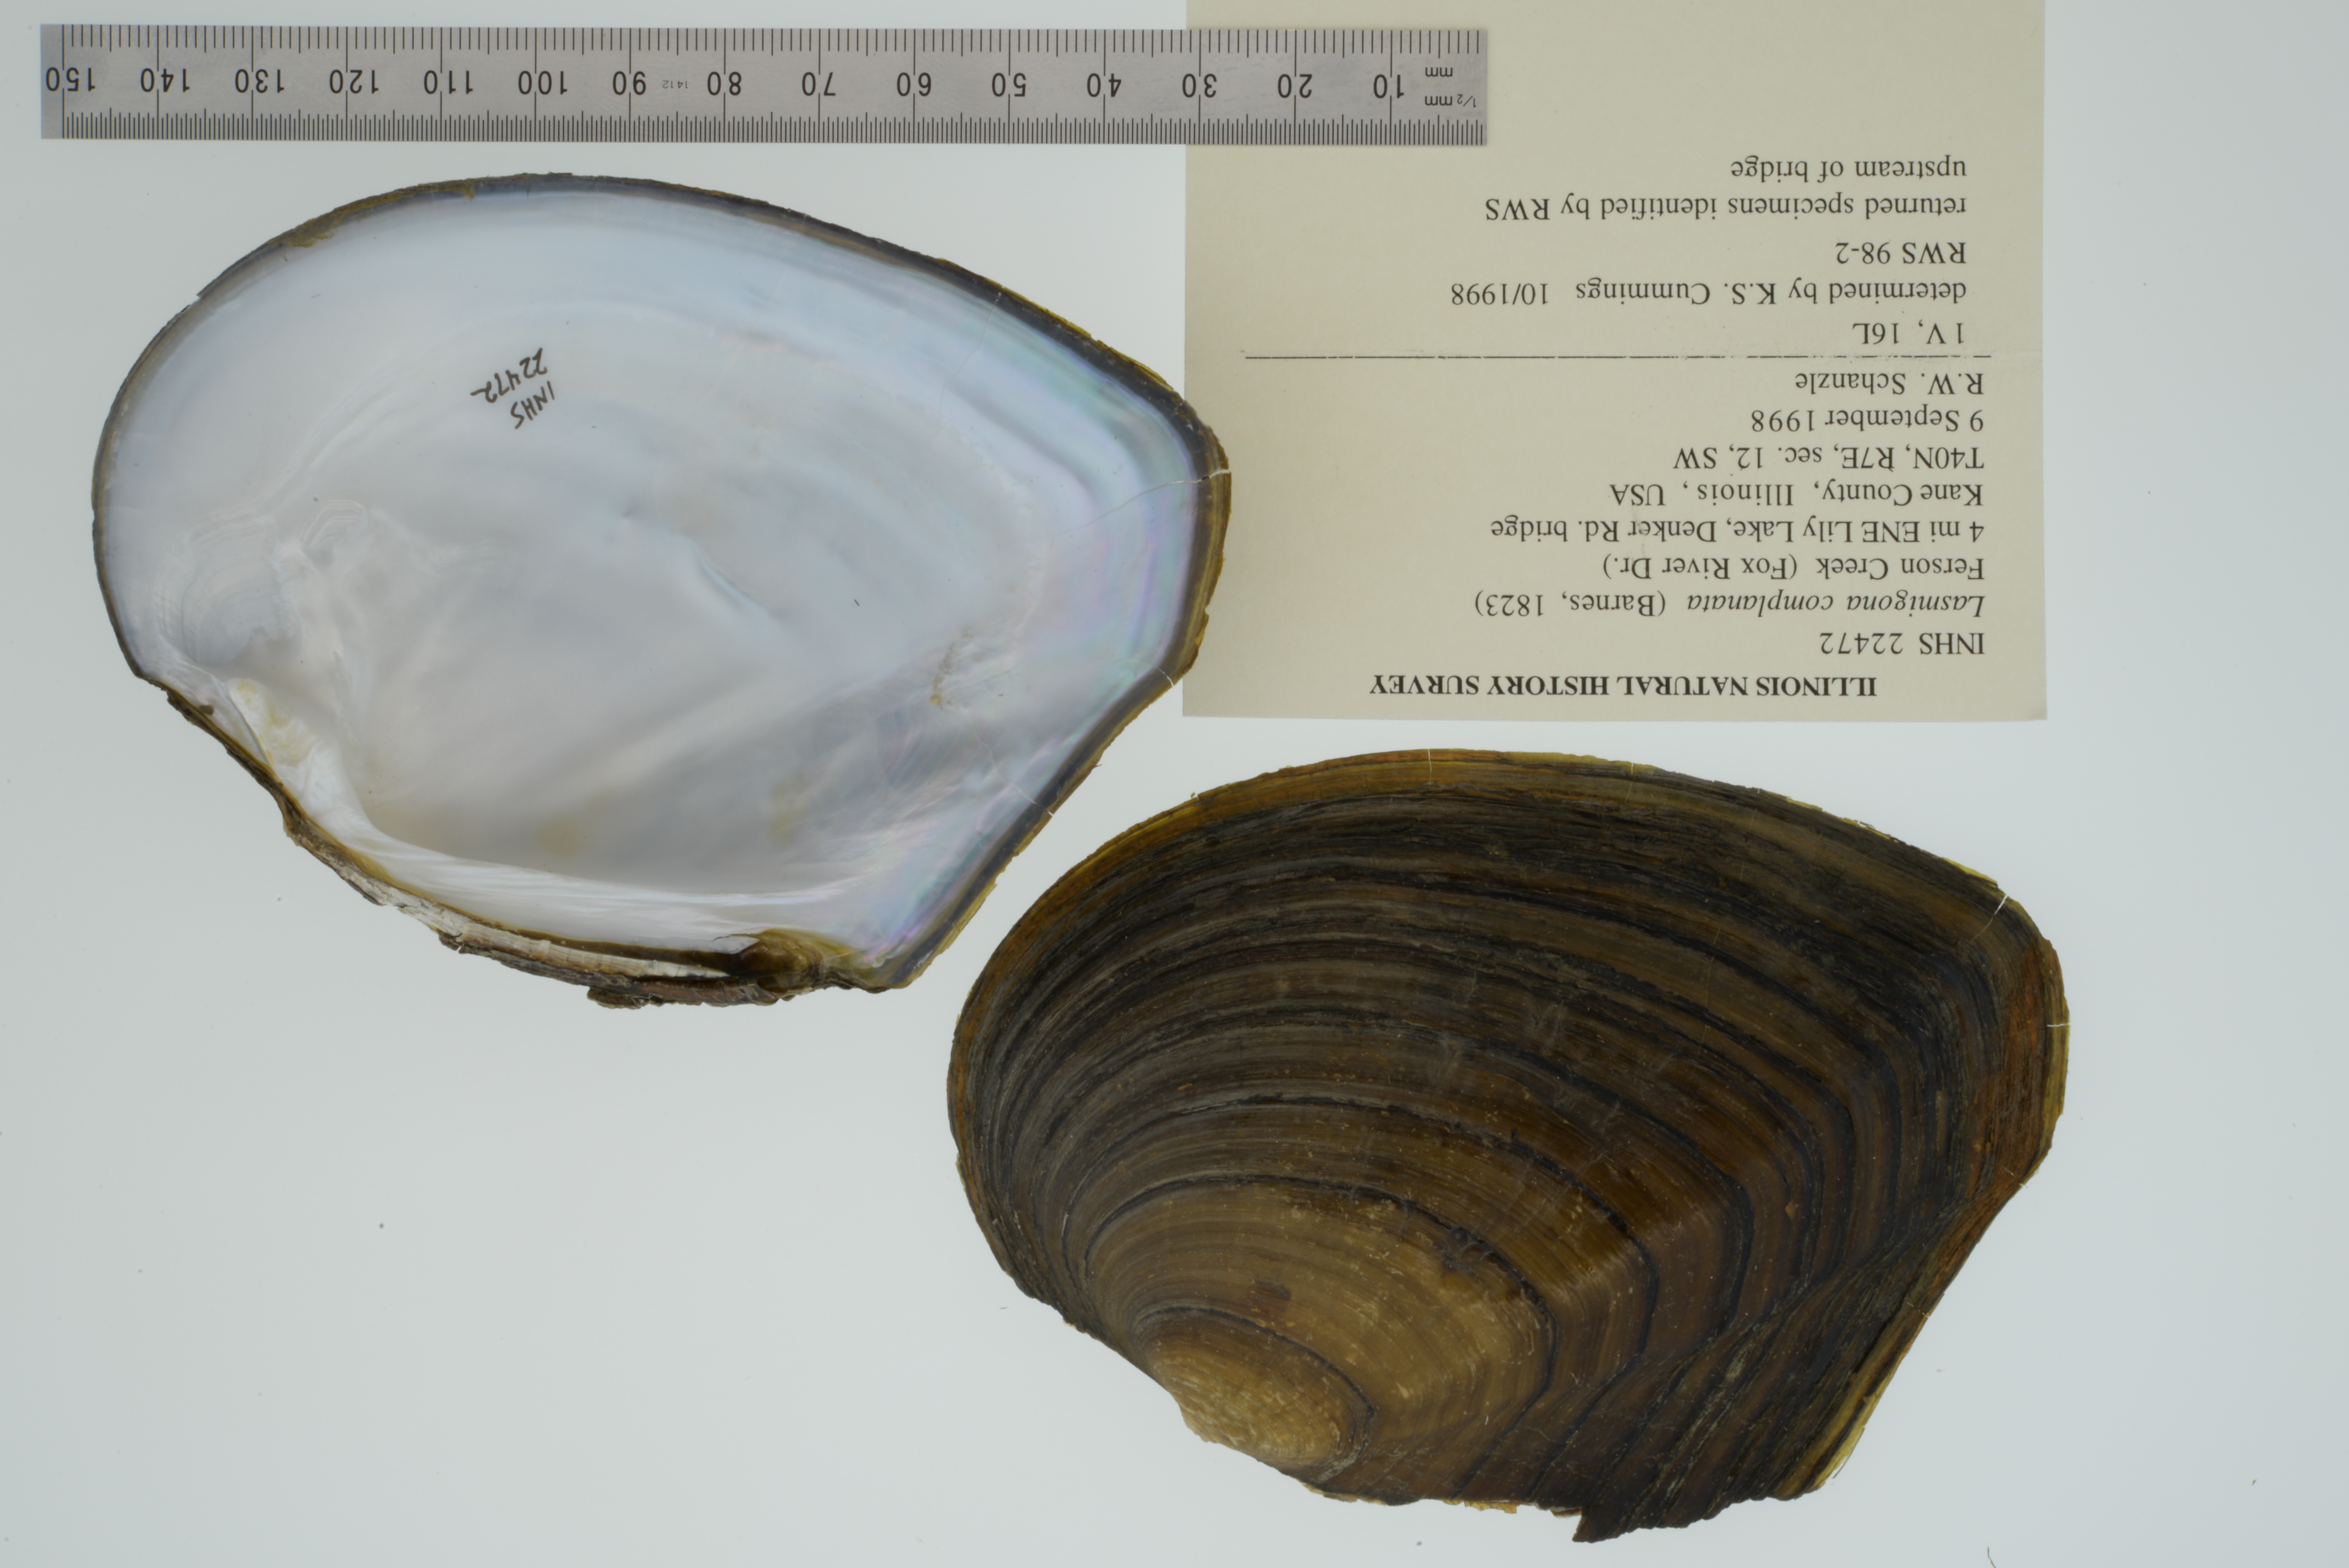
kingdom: Animalia
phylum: Mollusca
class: Bivalvia
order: Unionida
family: Unionidae
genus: Lasmigona
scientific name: Lasmigona complanata
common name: White heelsplitter
